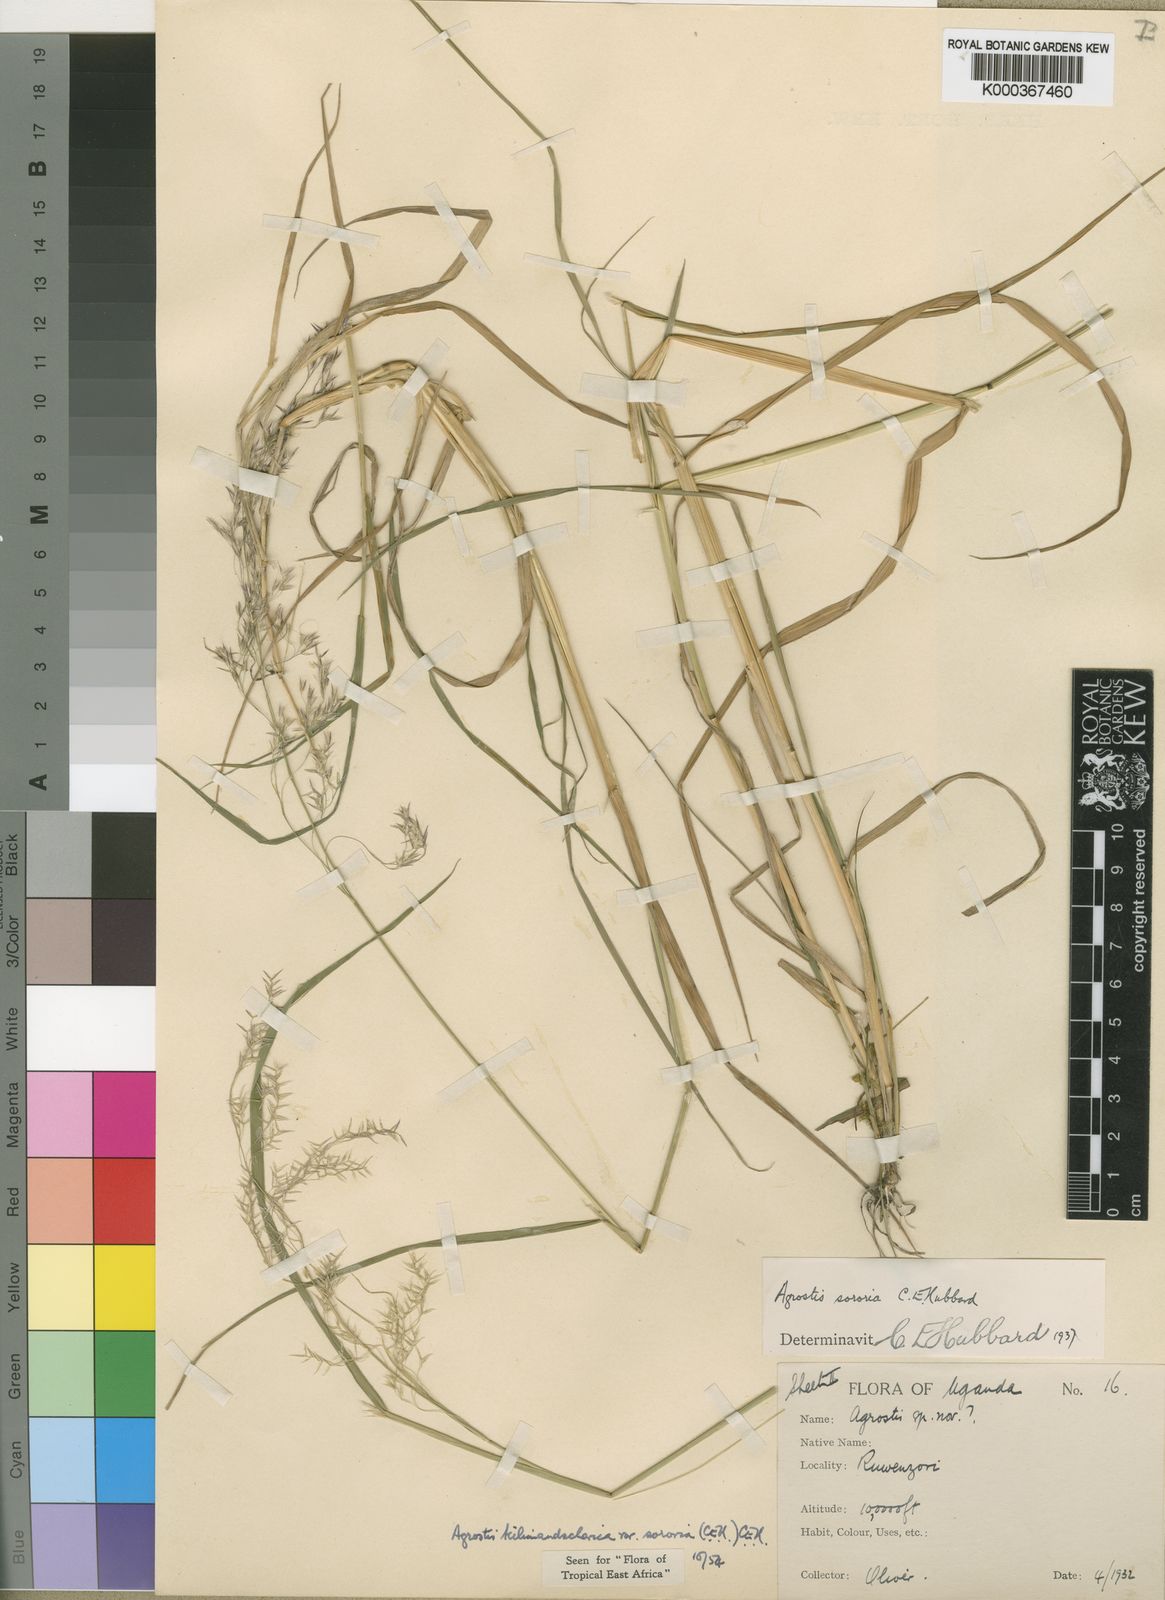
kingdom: Plantae
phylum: Tracheophyta
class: Liliopsida
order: Poales
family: Poaceae
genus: Agrostis
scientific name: Agrostis kilimandscharica
